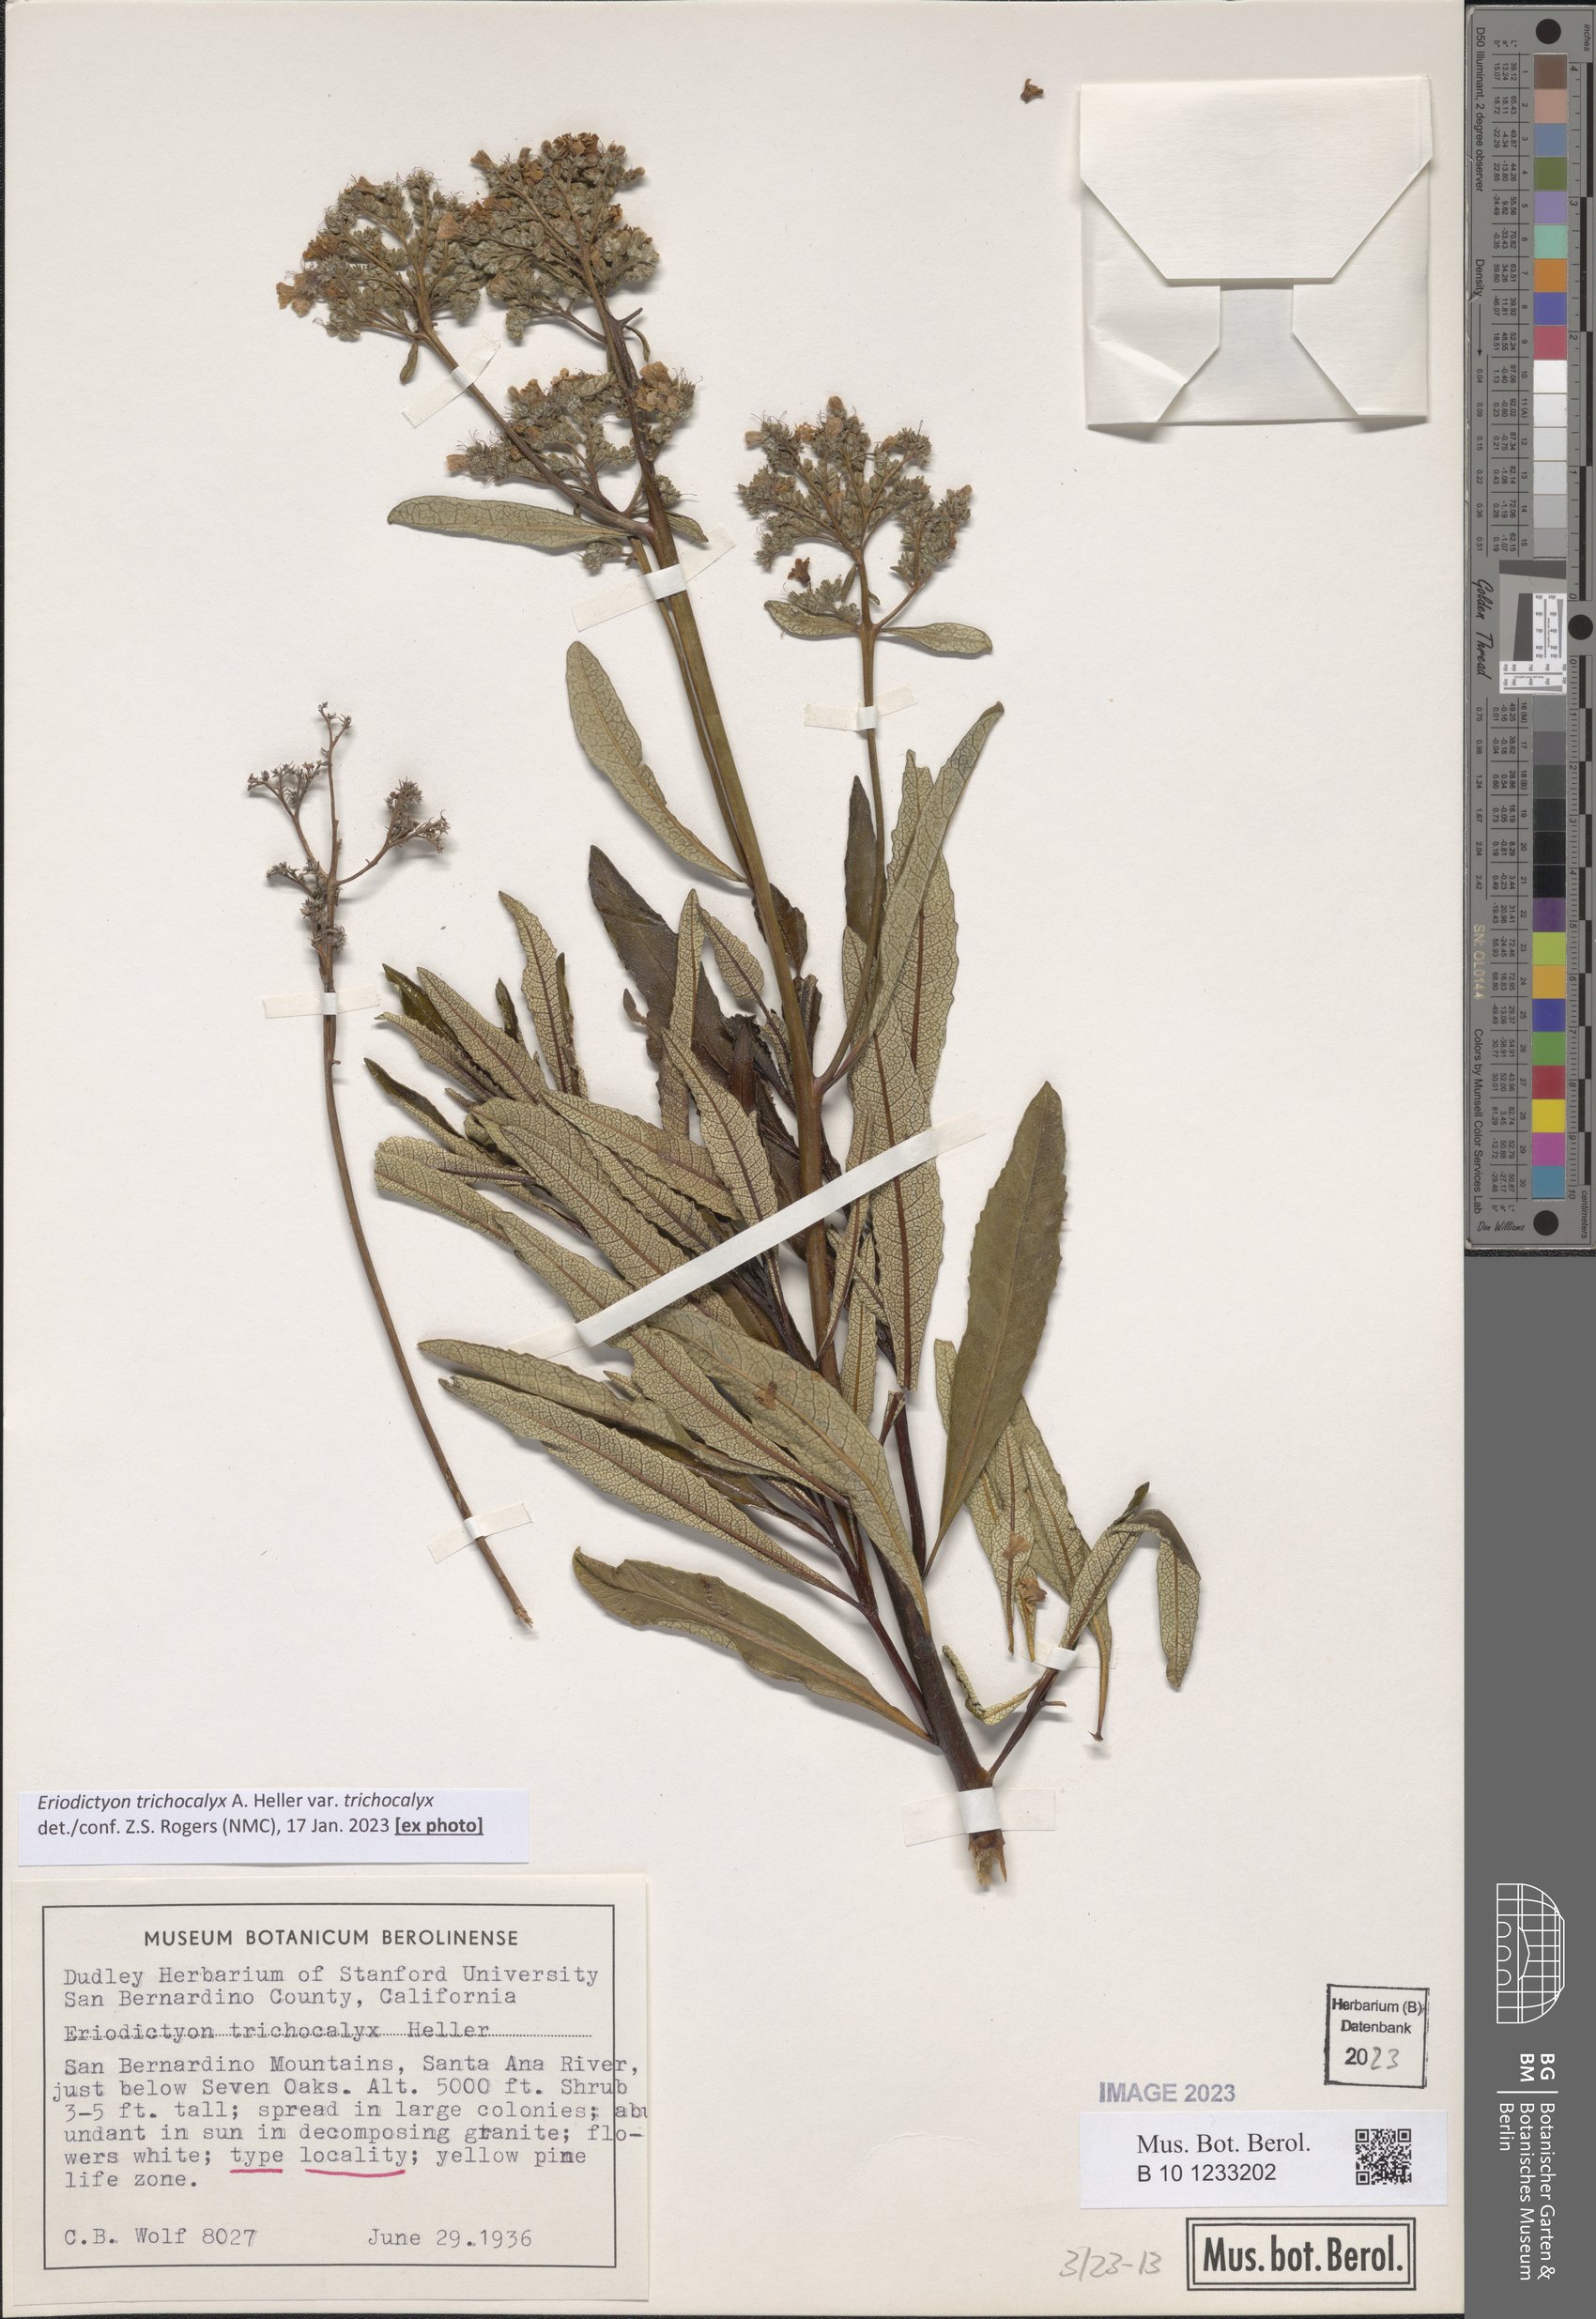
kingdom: Plantae
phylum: Tracheophyta
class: Magnoliopsida
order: Boraginales
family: Namaceae
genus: Eriodictyon
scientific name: Eriodictyon trichocalyx
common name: Hairy yerba-santa
